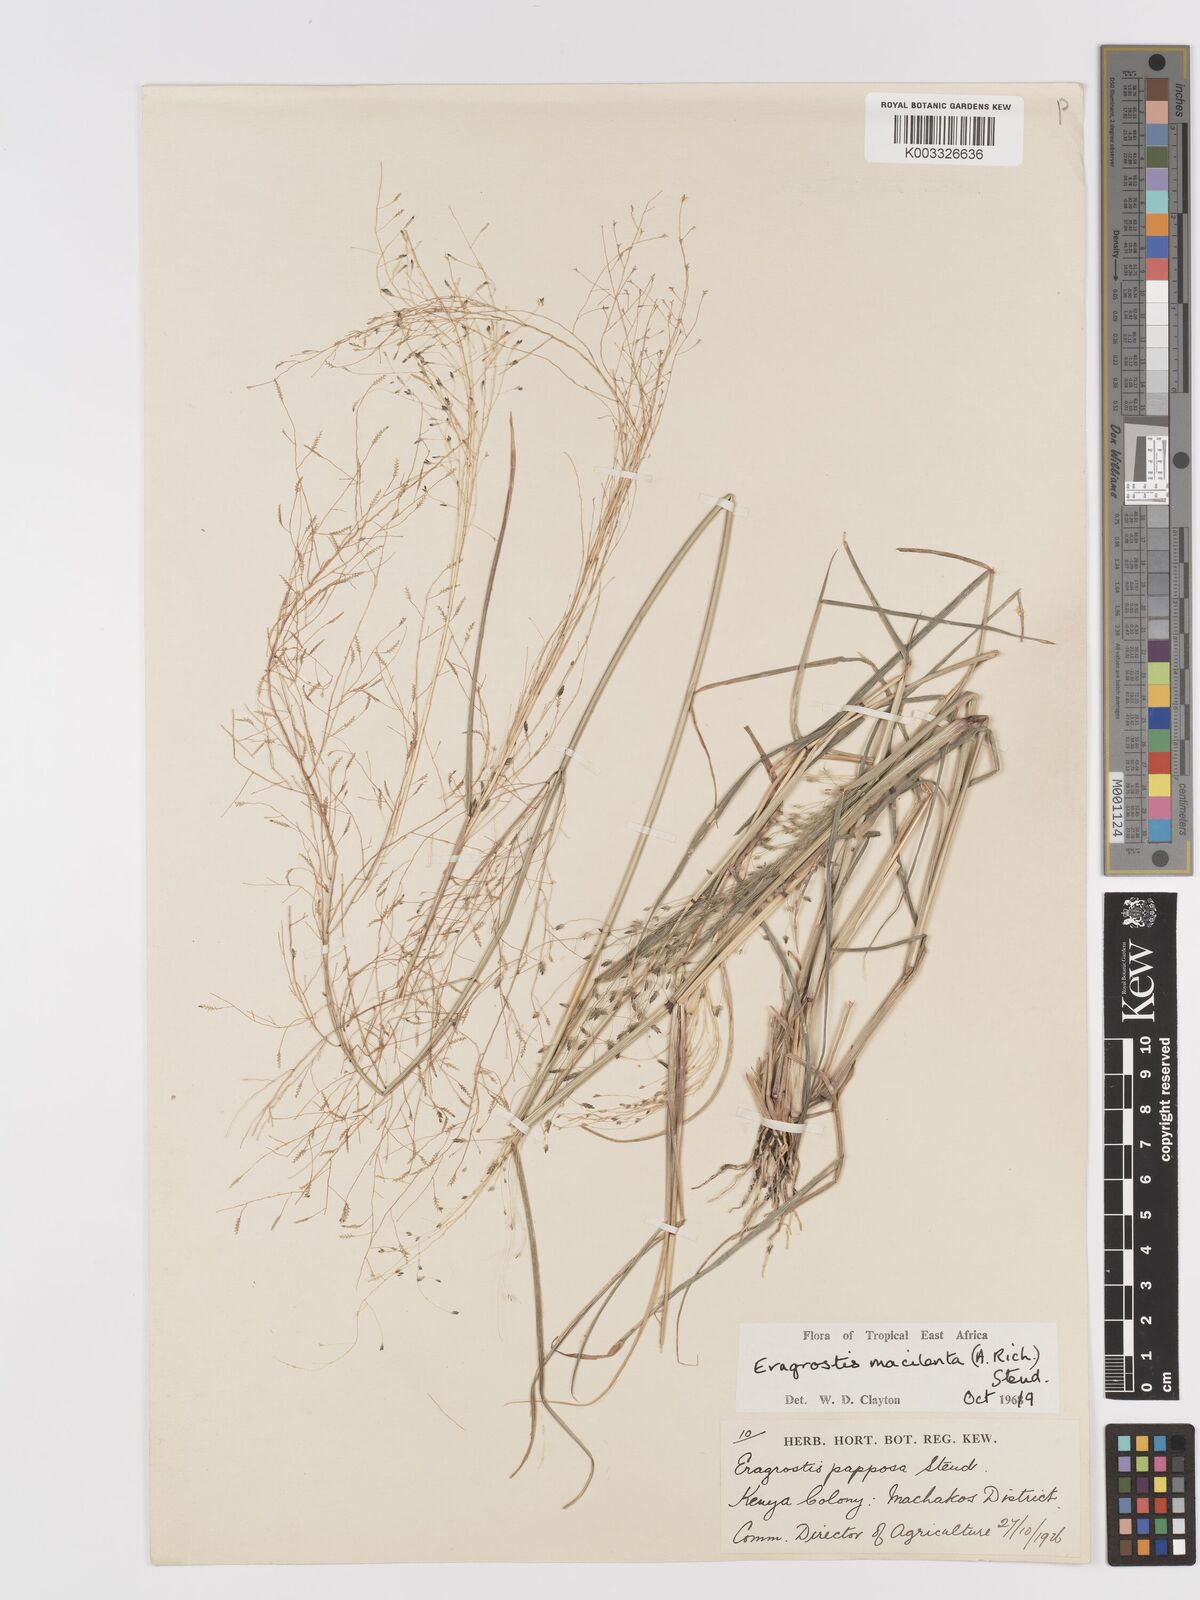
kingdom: Plantae
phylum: Tracheophyta
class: Liliopsida
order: Poales
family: Poaceae
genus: Eragrostis
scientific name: Eragrostis macilenta
